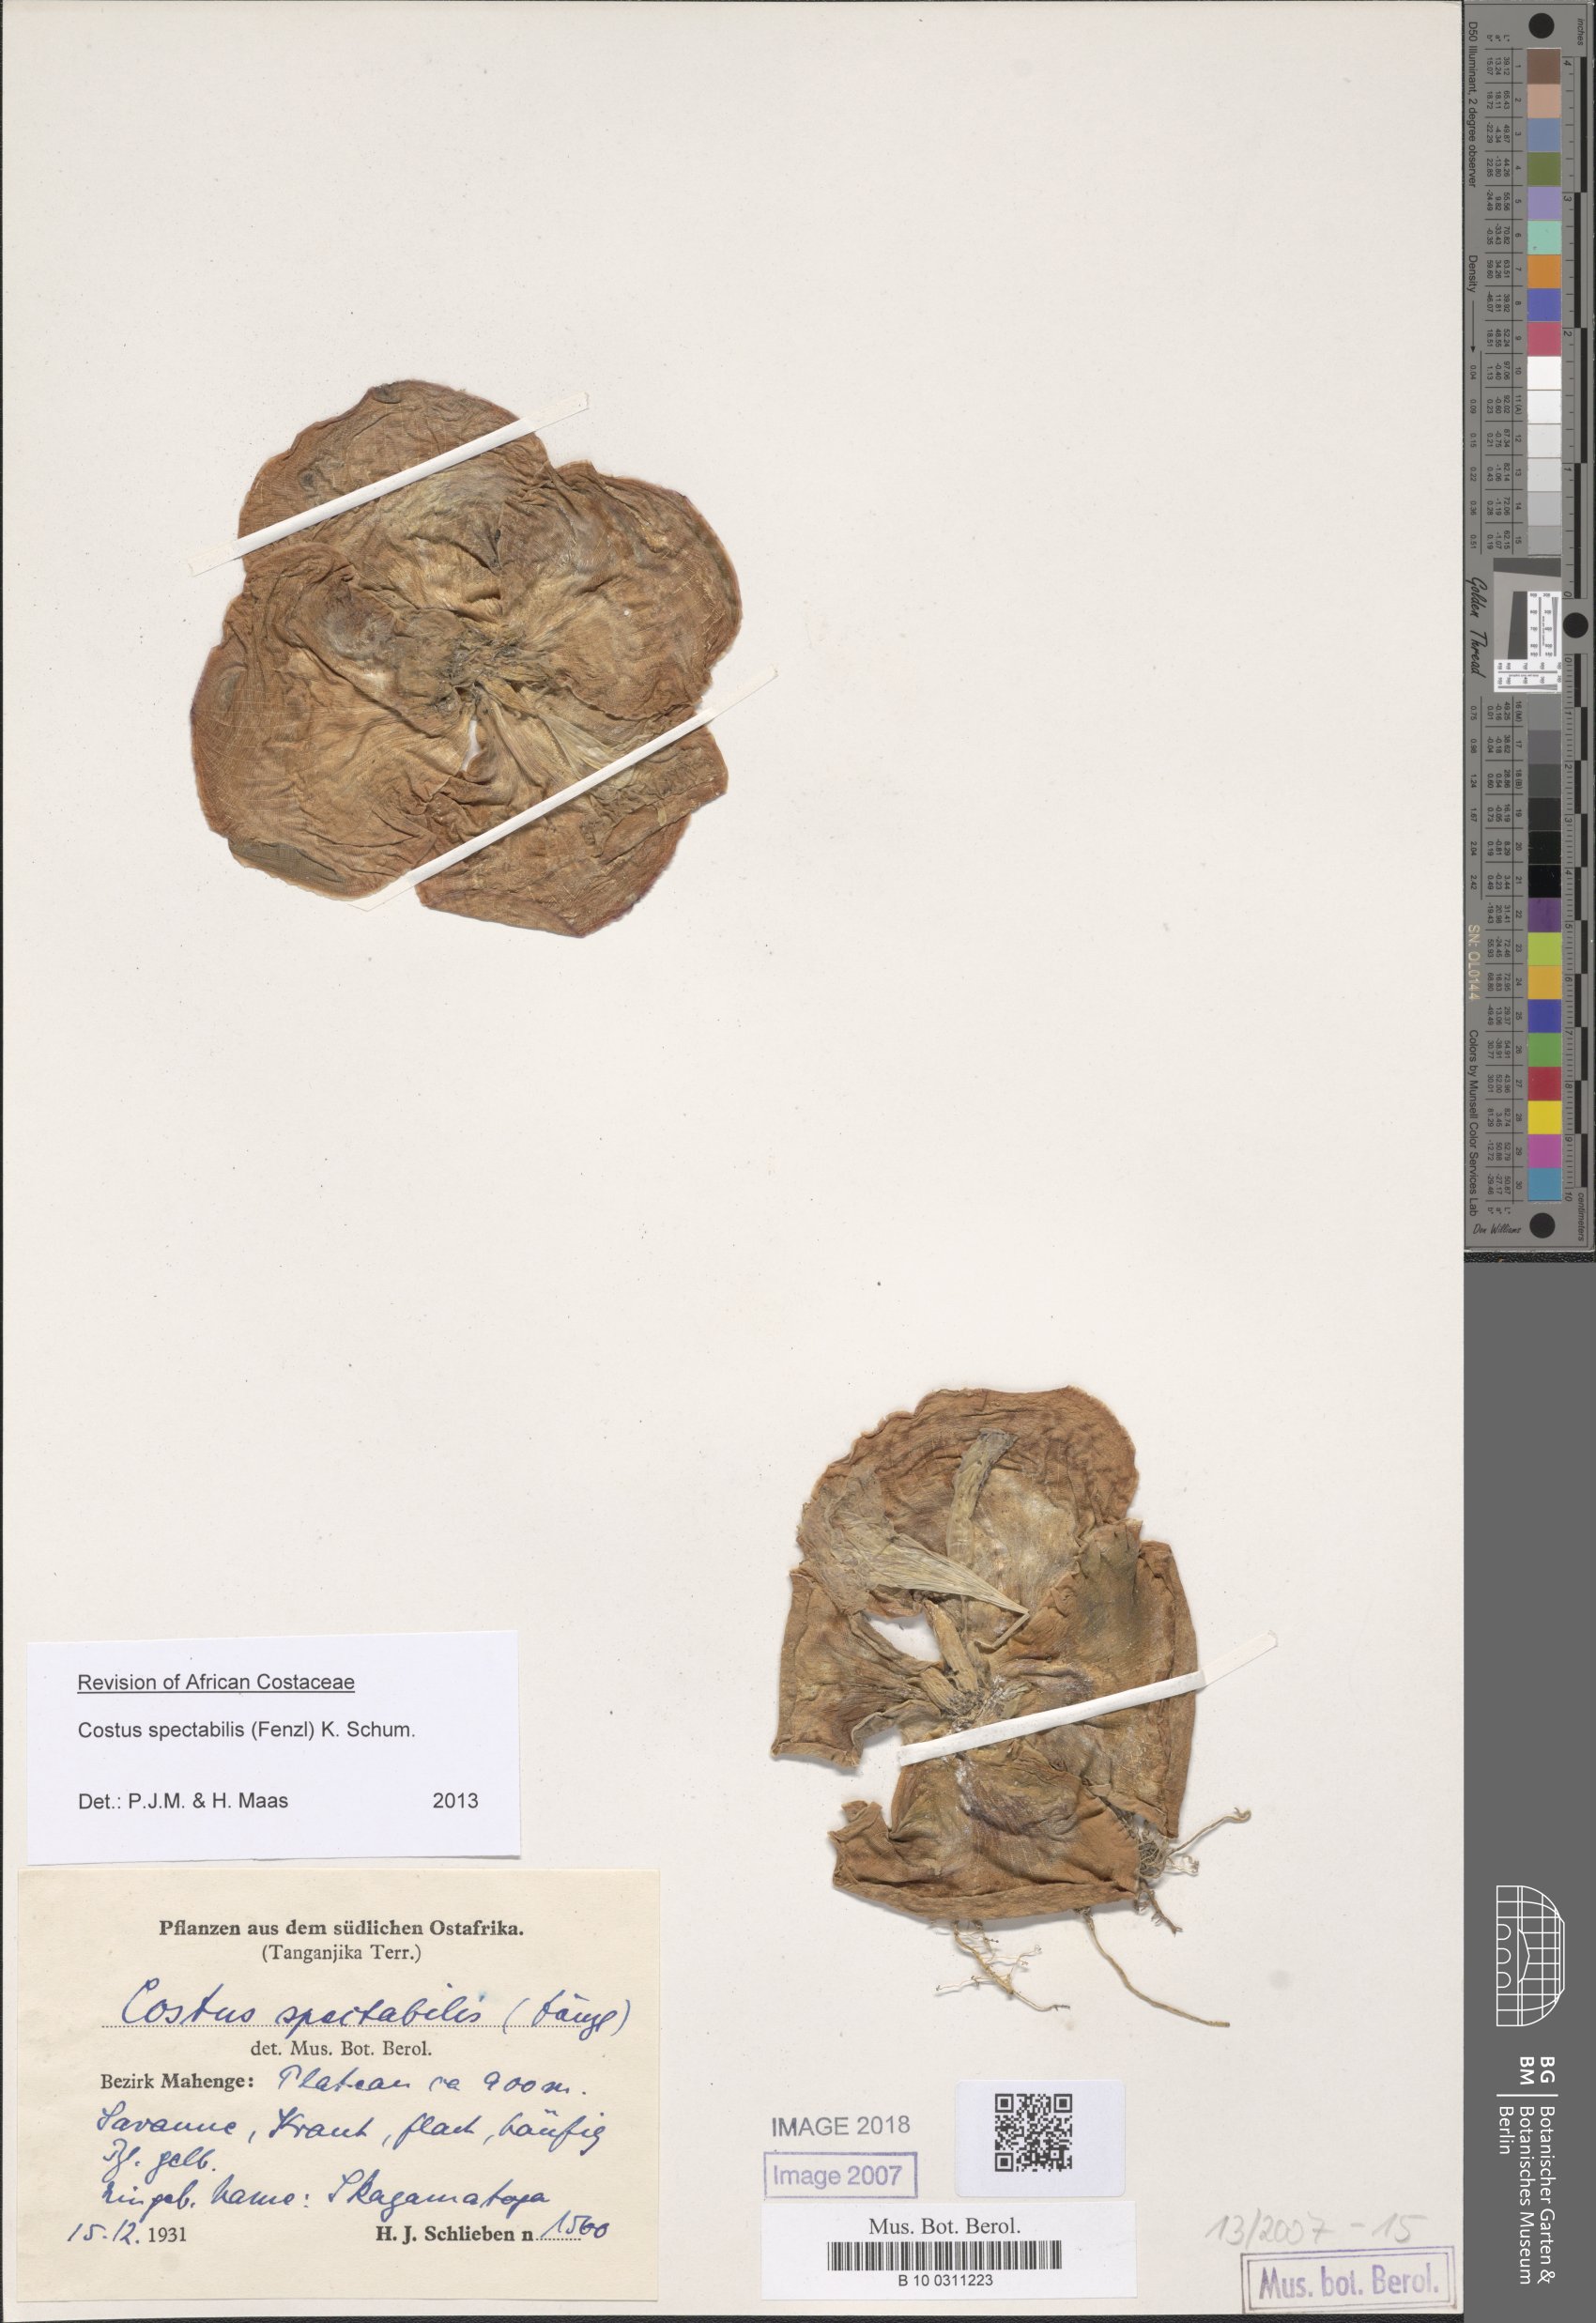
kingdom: Plantae
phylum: Tracheophyta
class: Liliopsida
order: Zingiberales
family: Costaceae
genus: Costus
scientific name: Costus spectabilis
